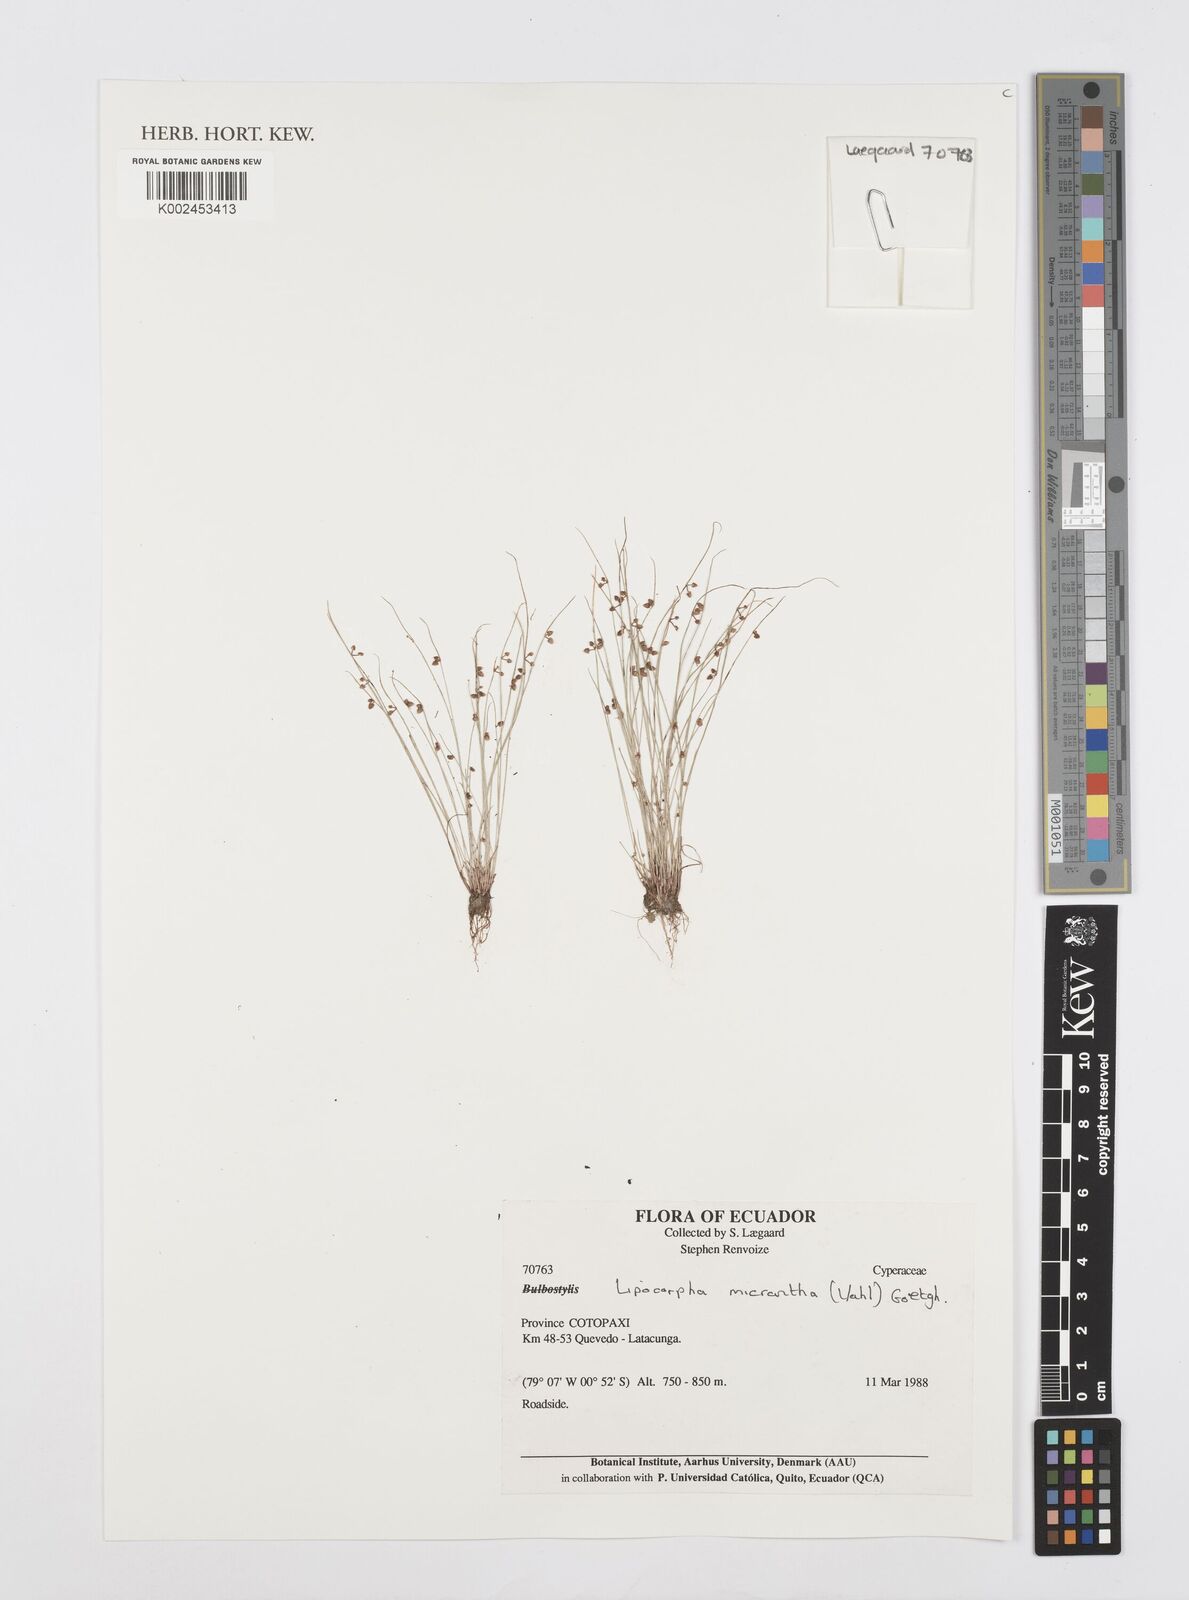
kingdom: Plantae
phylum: Tracheophyta
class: Liliopsida
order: Poales
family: Cyperaceae
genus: Cyperus
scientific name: Cyperus dentatus
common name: Dentate umbrella sedge
